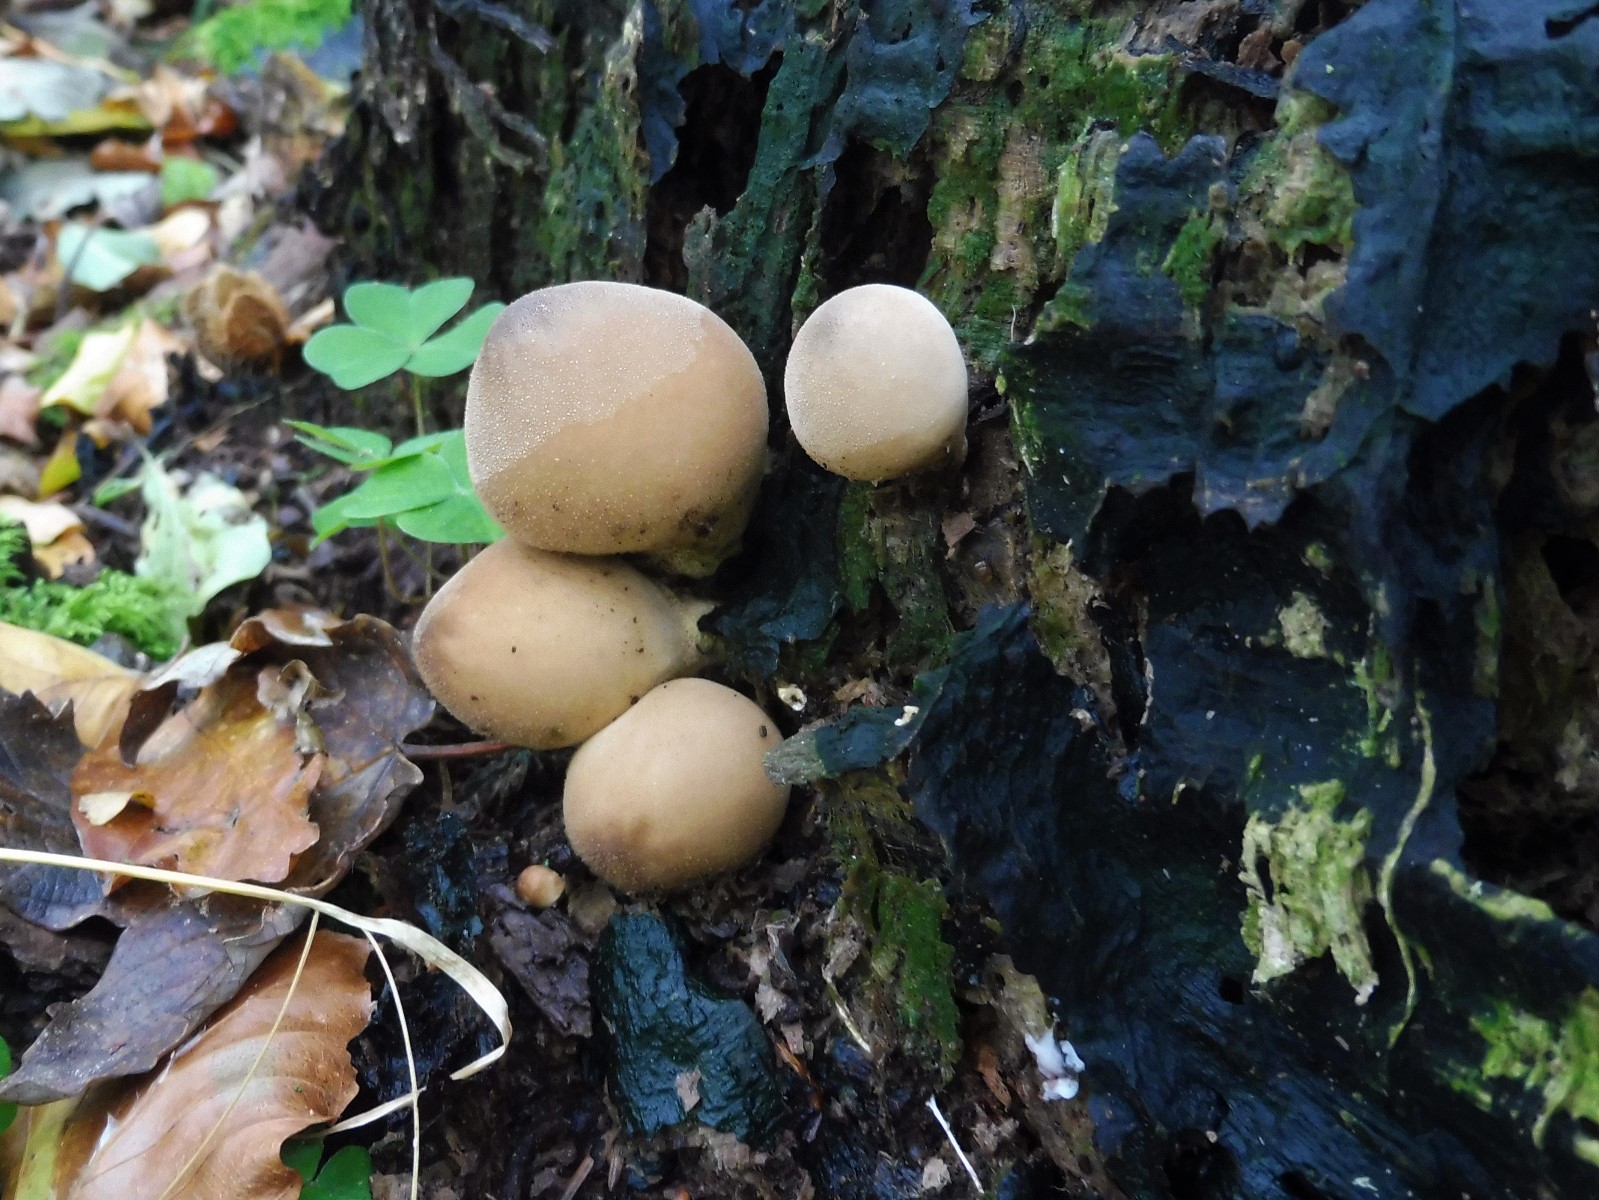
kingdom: Fungi
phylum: Basidiomycota
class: Agaricomycetes
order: Agaricales
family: Lycoperdaceae
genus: Apioperdon
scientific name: Apioperdon pyriforme
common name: pære-støvbold
